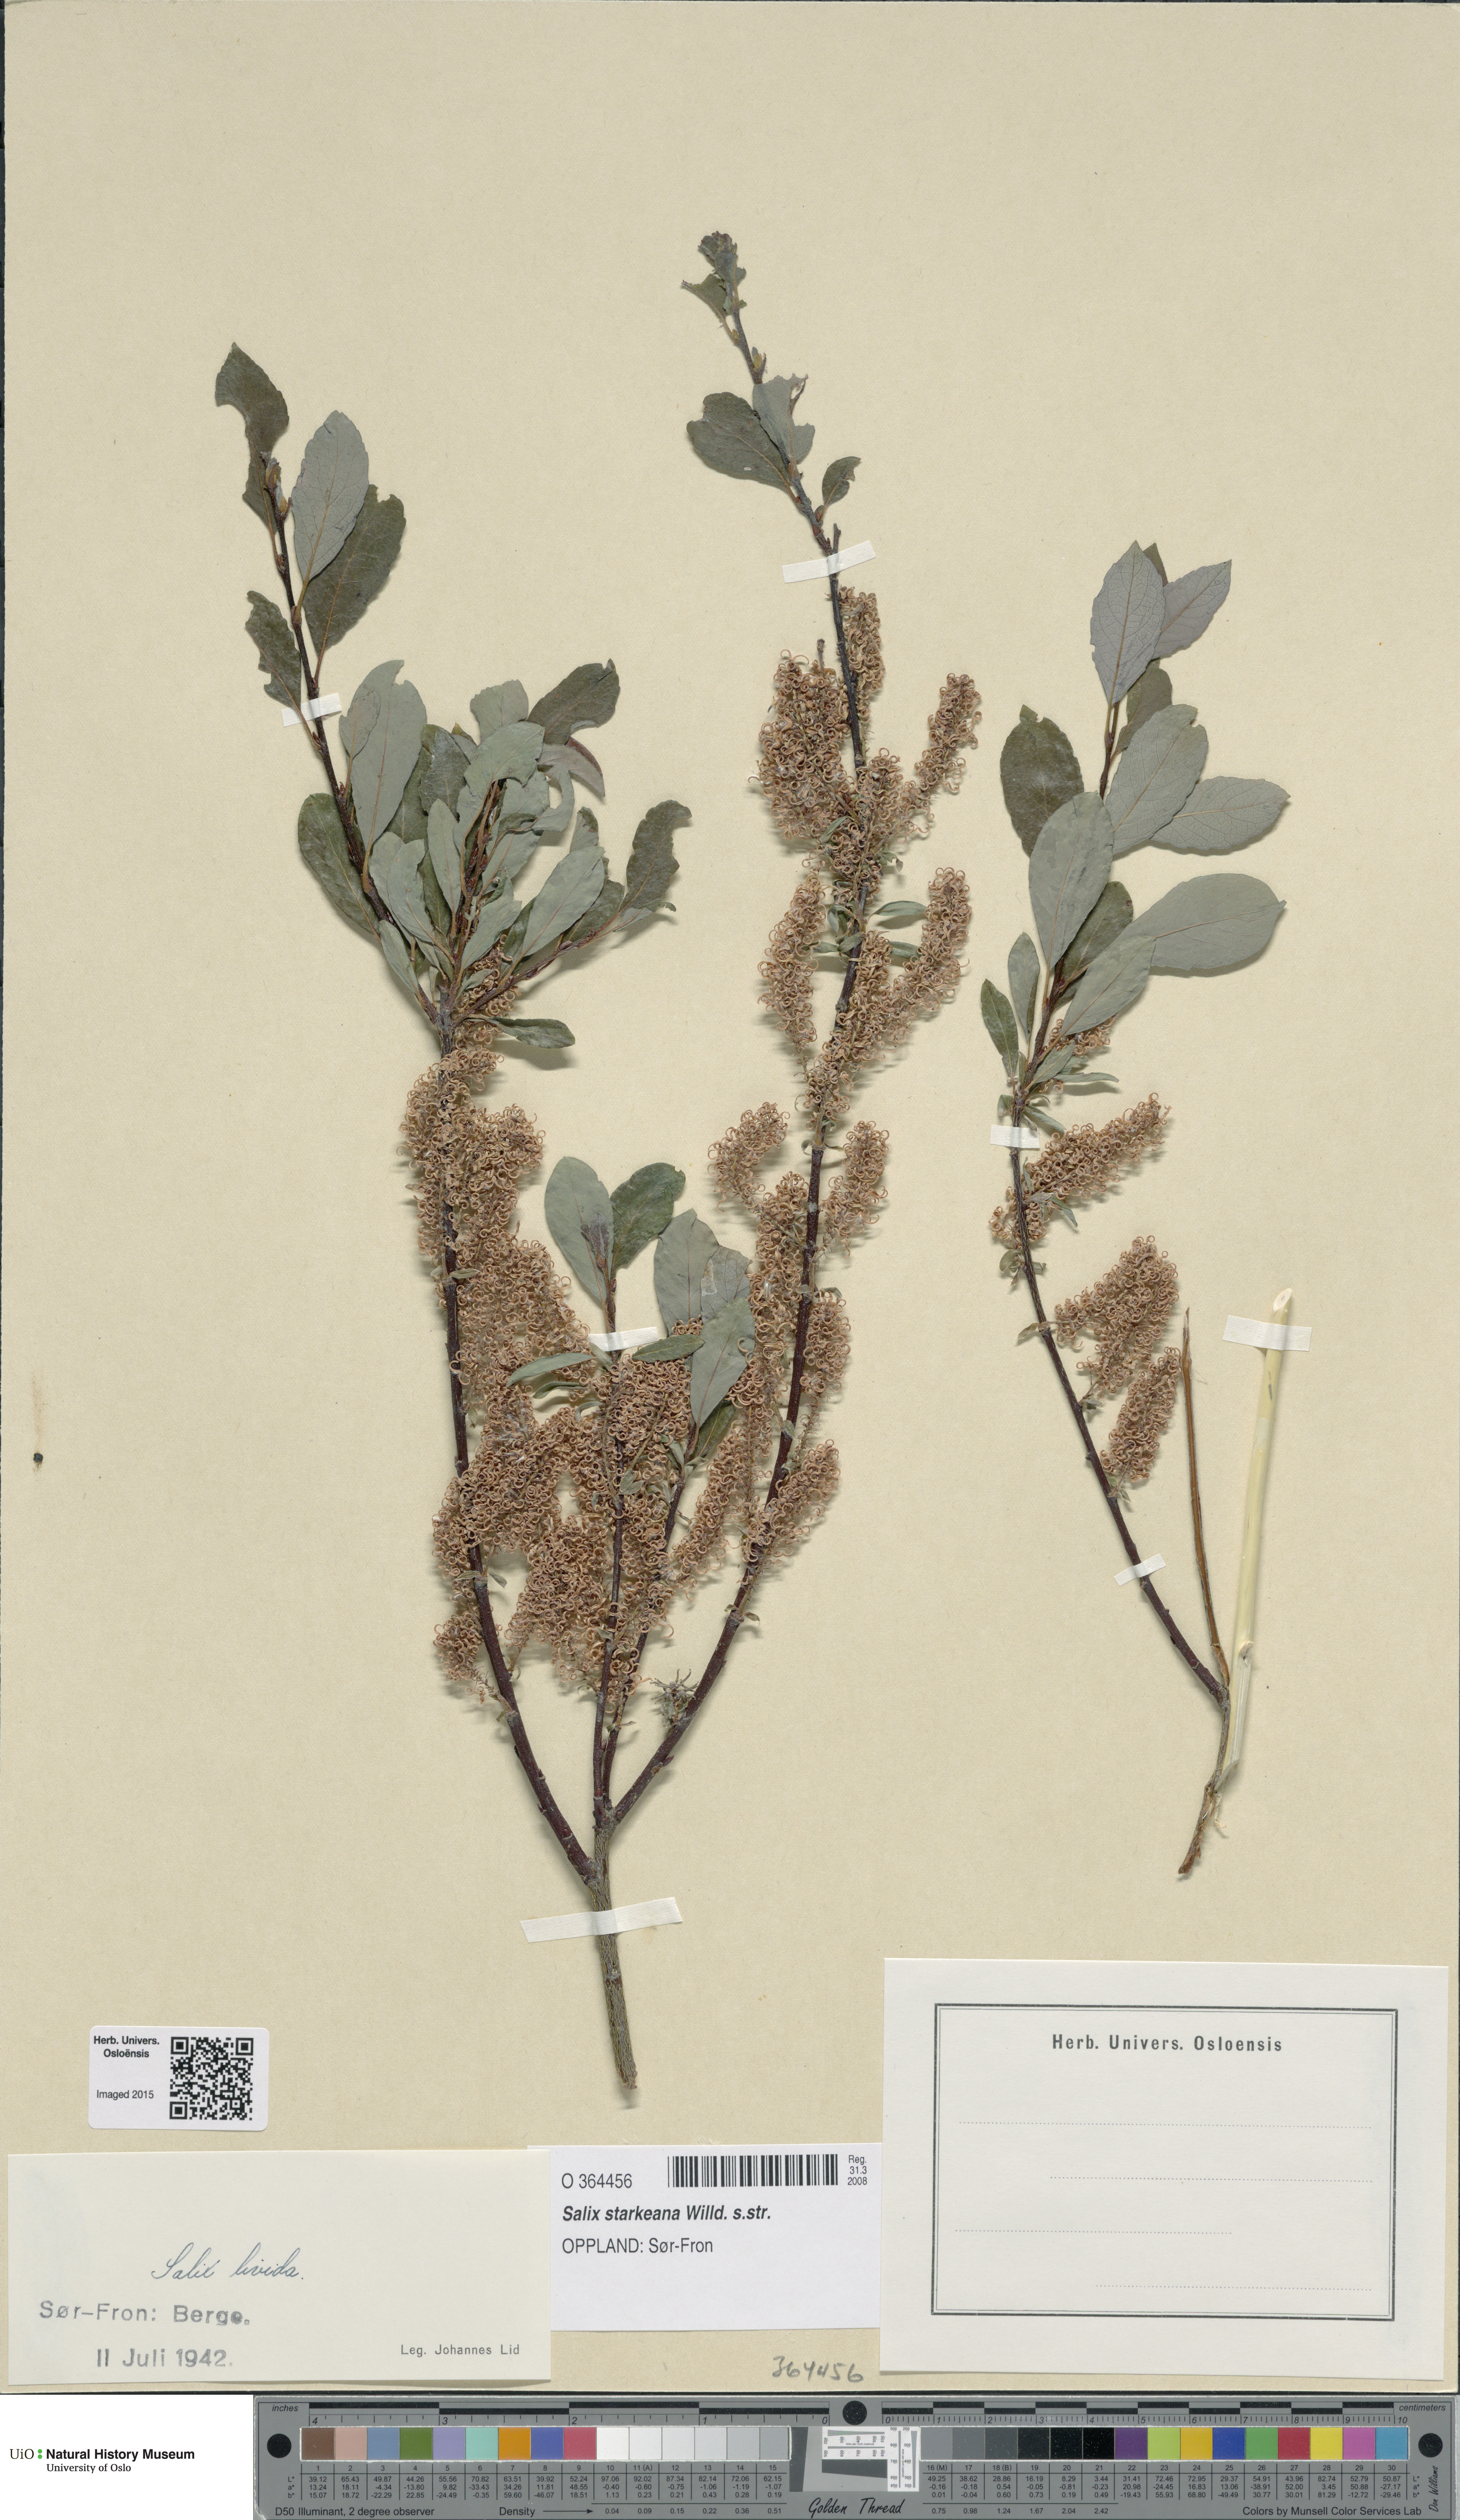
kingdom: Plantae
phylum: Tracheophyta
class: Magnoliopsida
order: Malpighiales
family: Salicaceae
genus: Salix
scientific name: Salix starkeana
